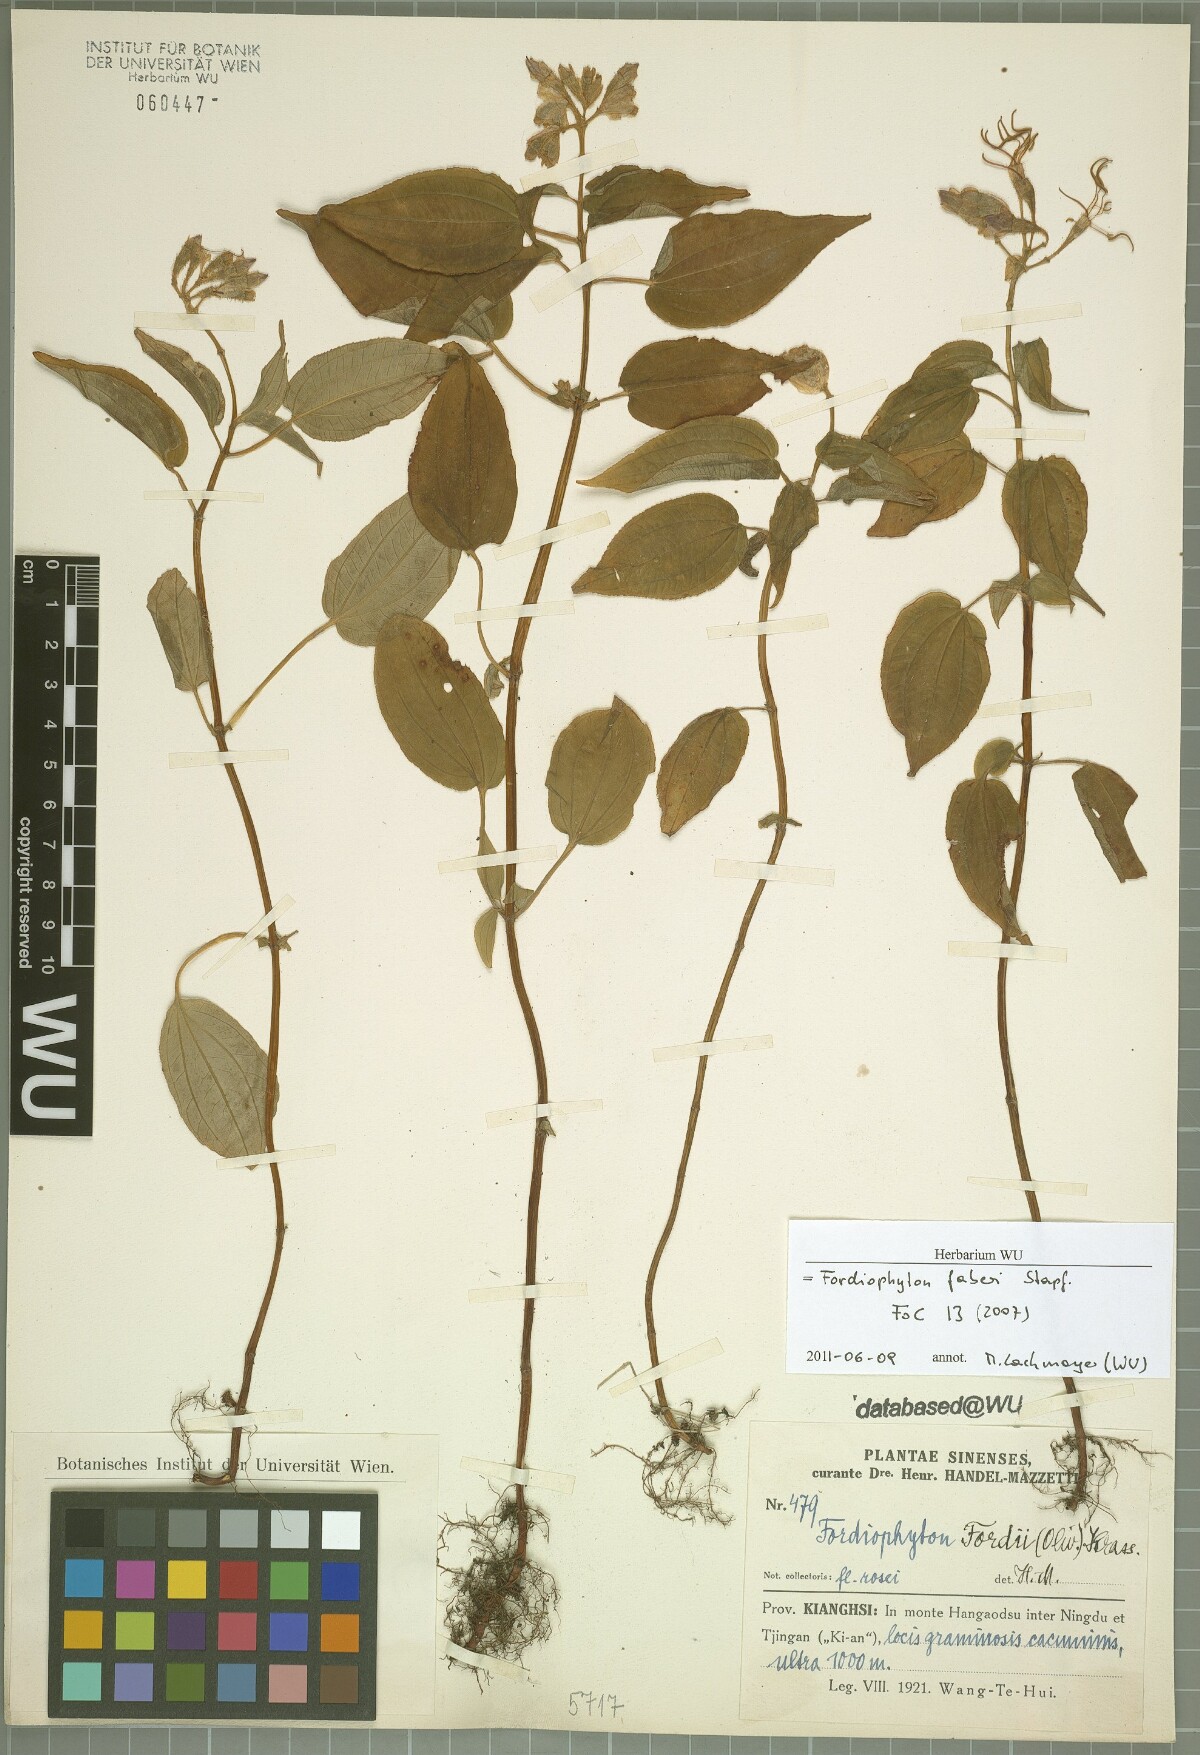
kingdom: Plantae
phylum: Tracheophyta
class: Magnoliopsida
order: Myrtales
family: Melastomataceae
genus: Fordiophyton
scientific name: Fordiophyton faberi
